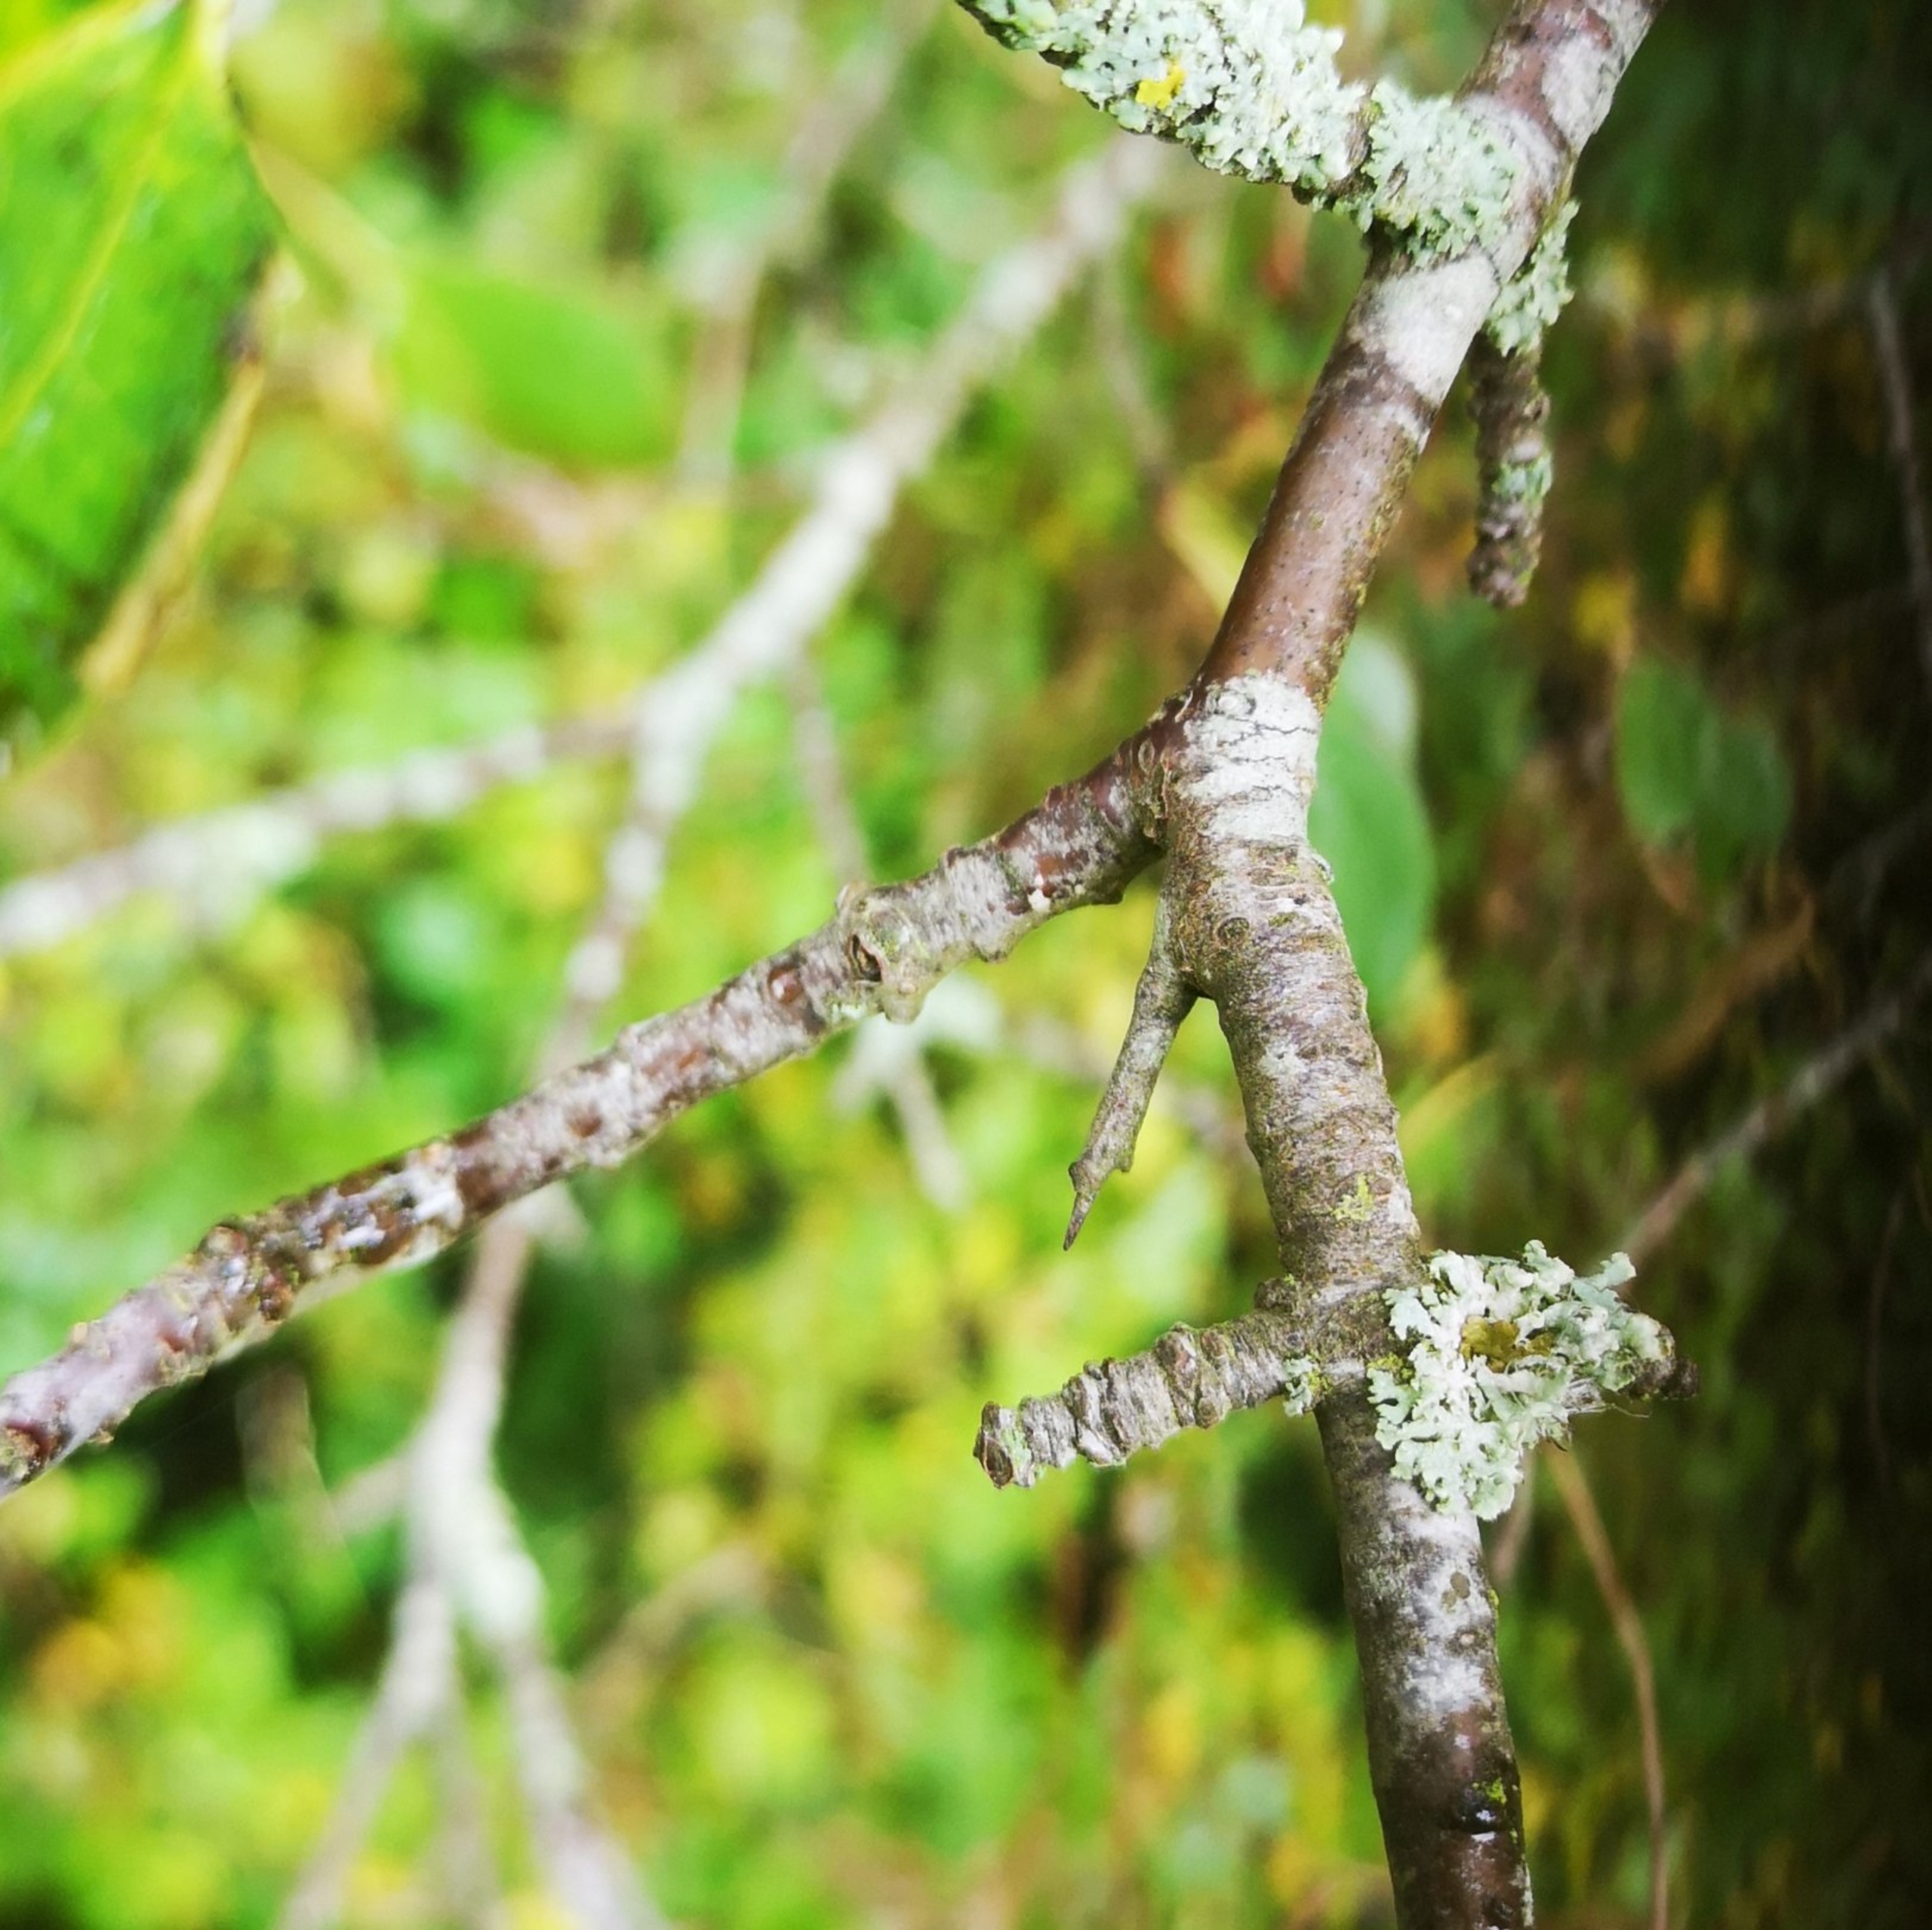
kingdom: Plantae
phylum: Tracheophyta
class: Magnoliopsida
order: Rosales
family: Rhamnaceae
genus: Rhamnus
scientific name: Rhamnus cathartica
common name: Vrietorn
